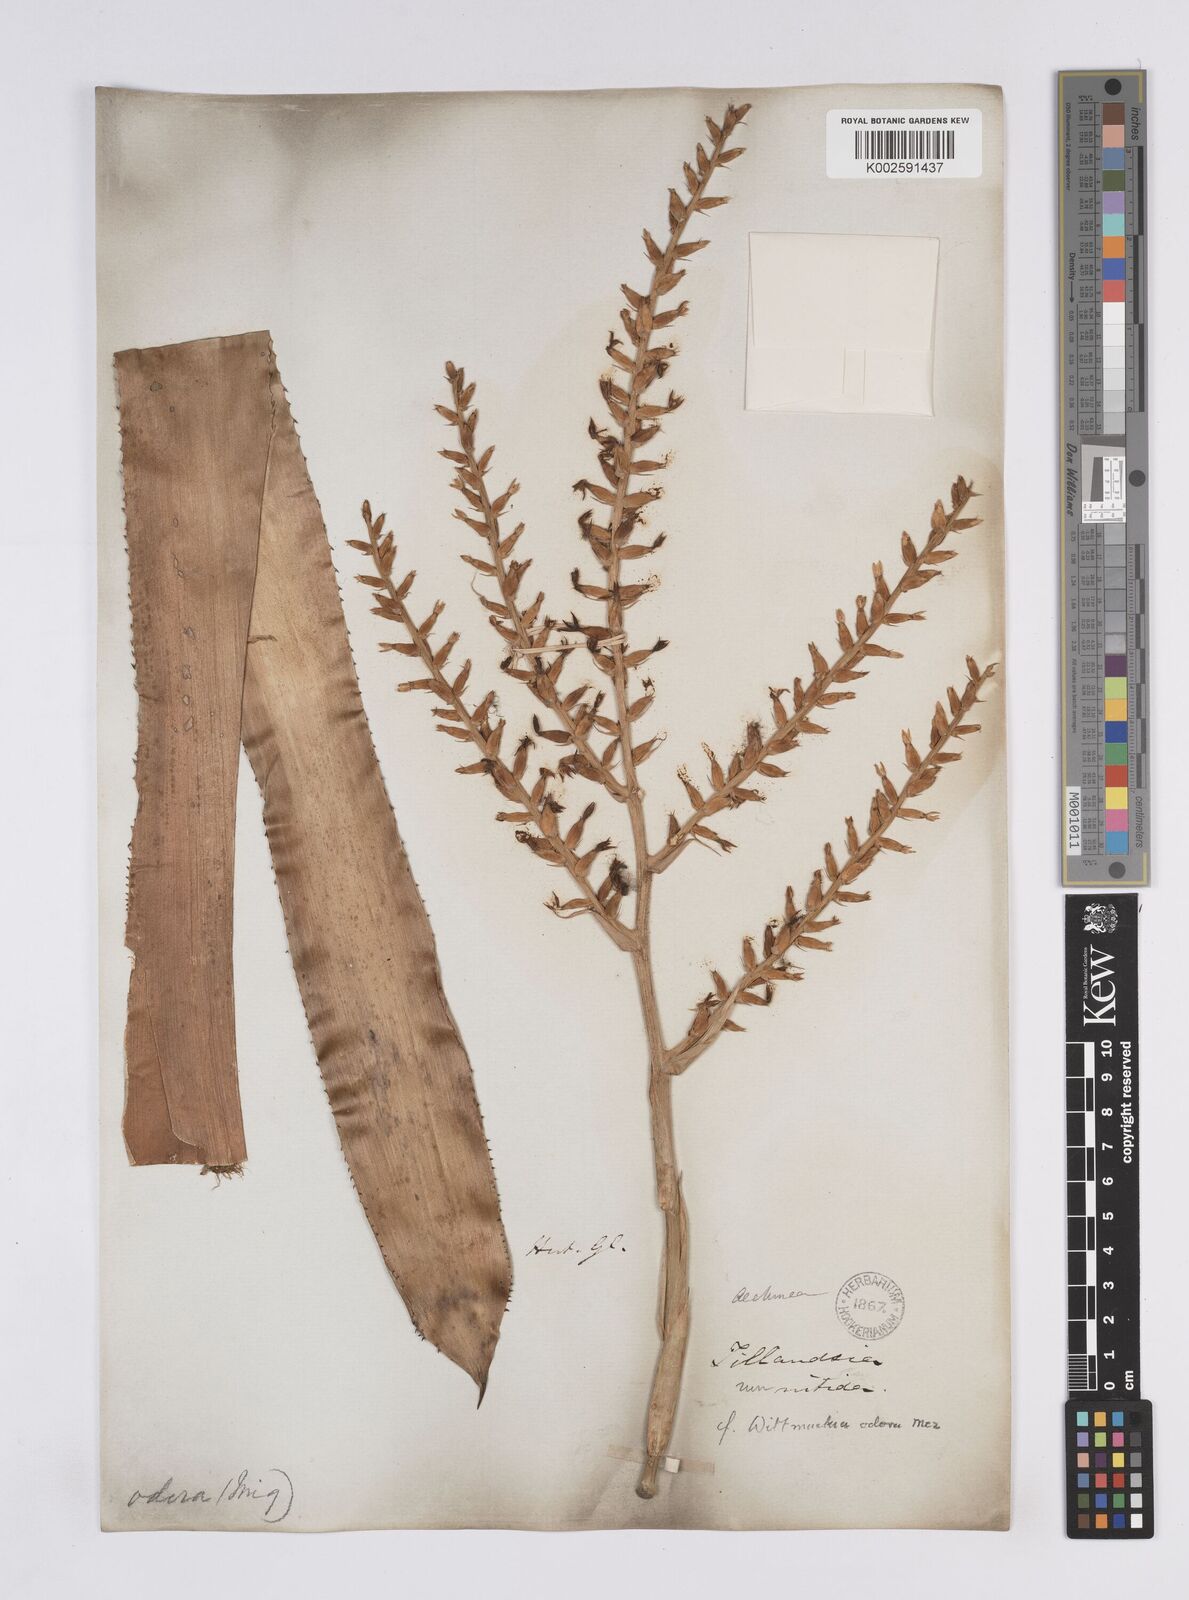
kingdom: Plantae
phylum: Tracheophyta
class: Liliopsida
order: Poales
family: Bromeliaceae
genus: Wittmackia
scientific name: Wittmackia lingulata
